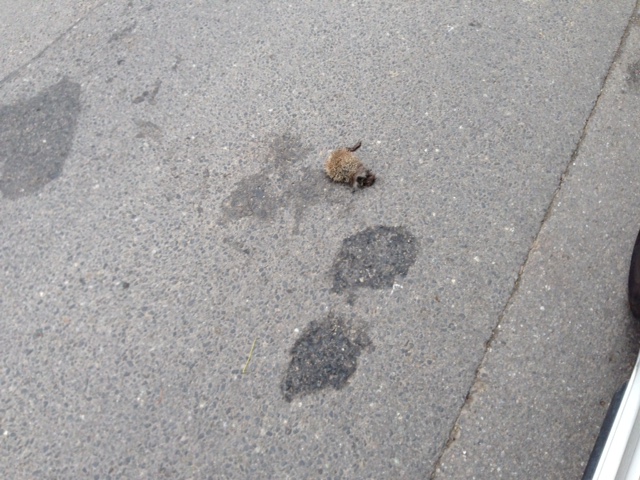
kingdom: Animalia
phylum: Chordata
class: Mammalia
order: Erinaceomorpha
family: Erinaceidae
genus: Erinaceus
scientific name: Erinaceus
